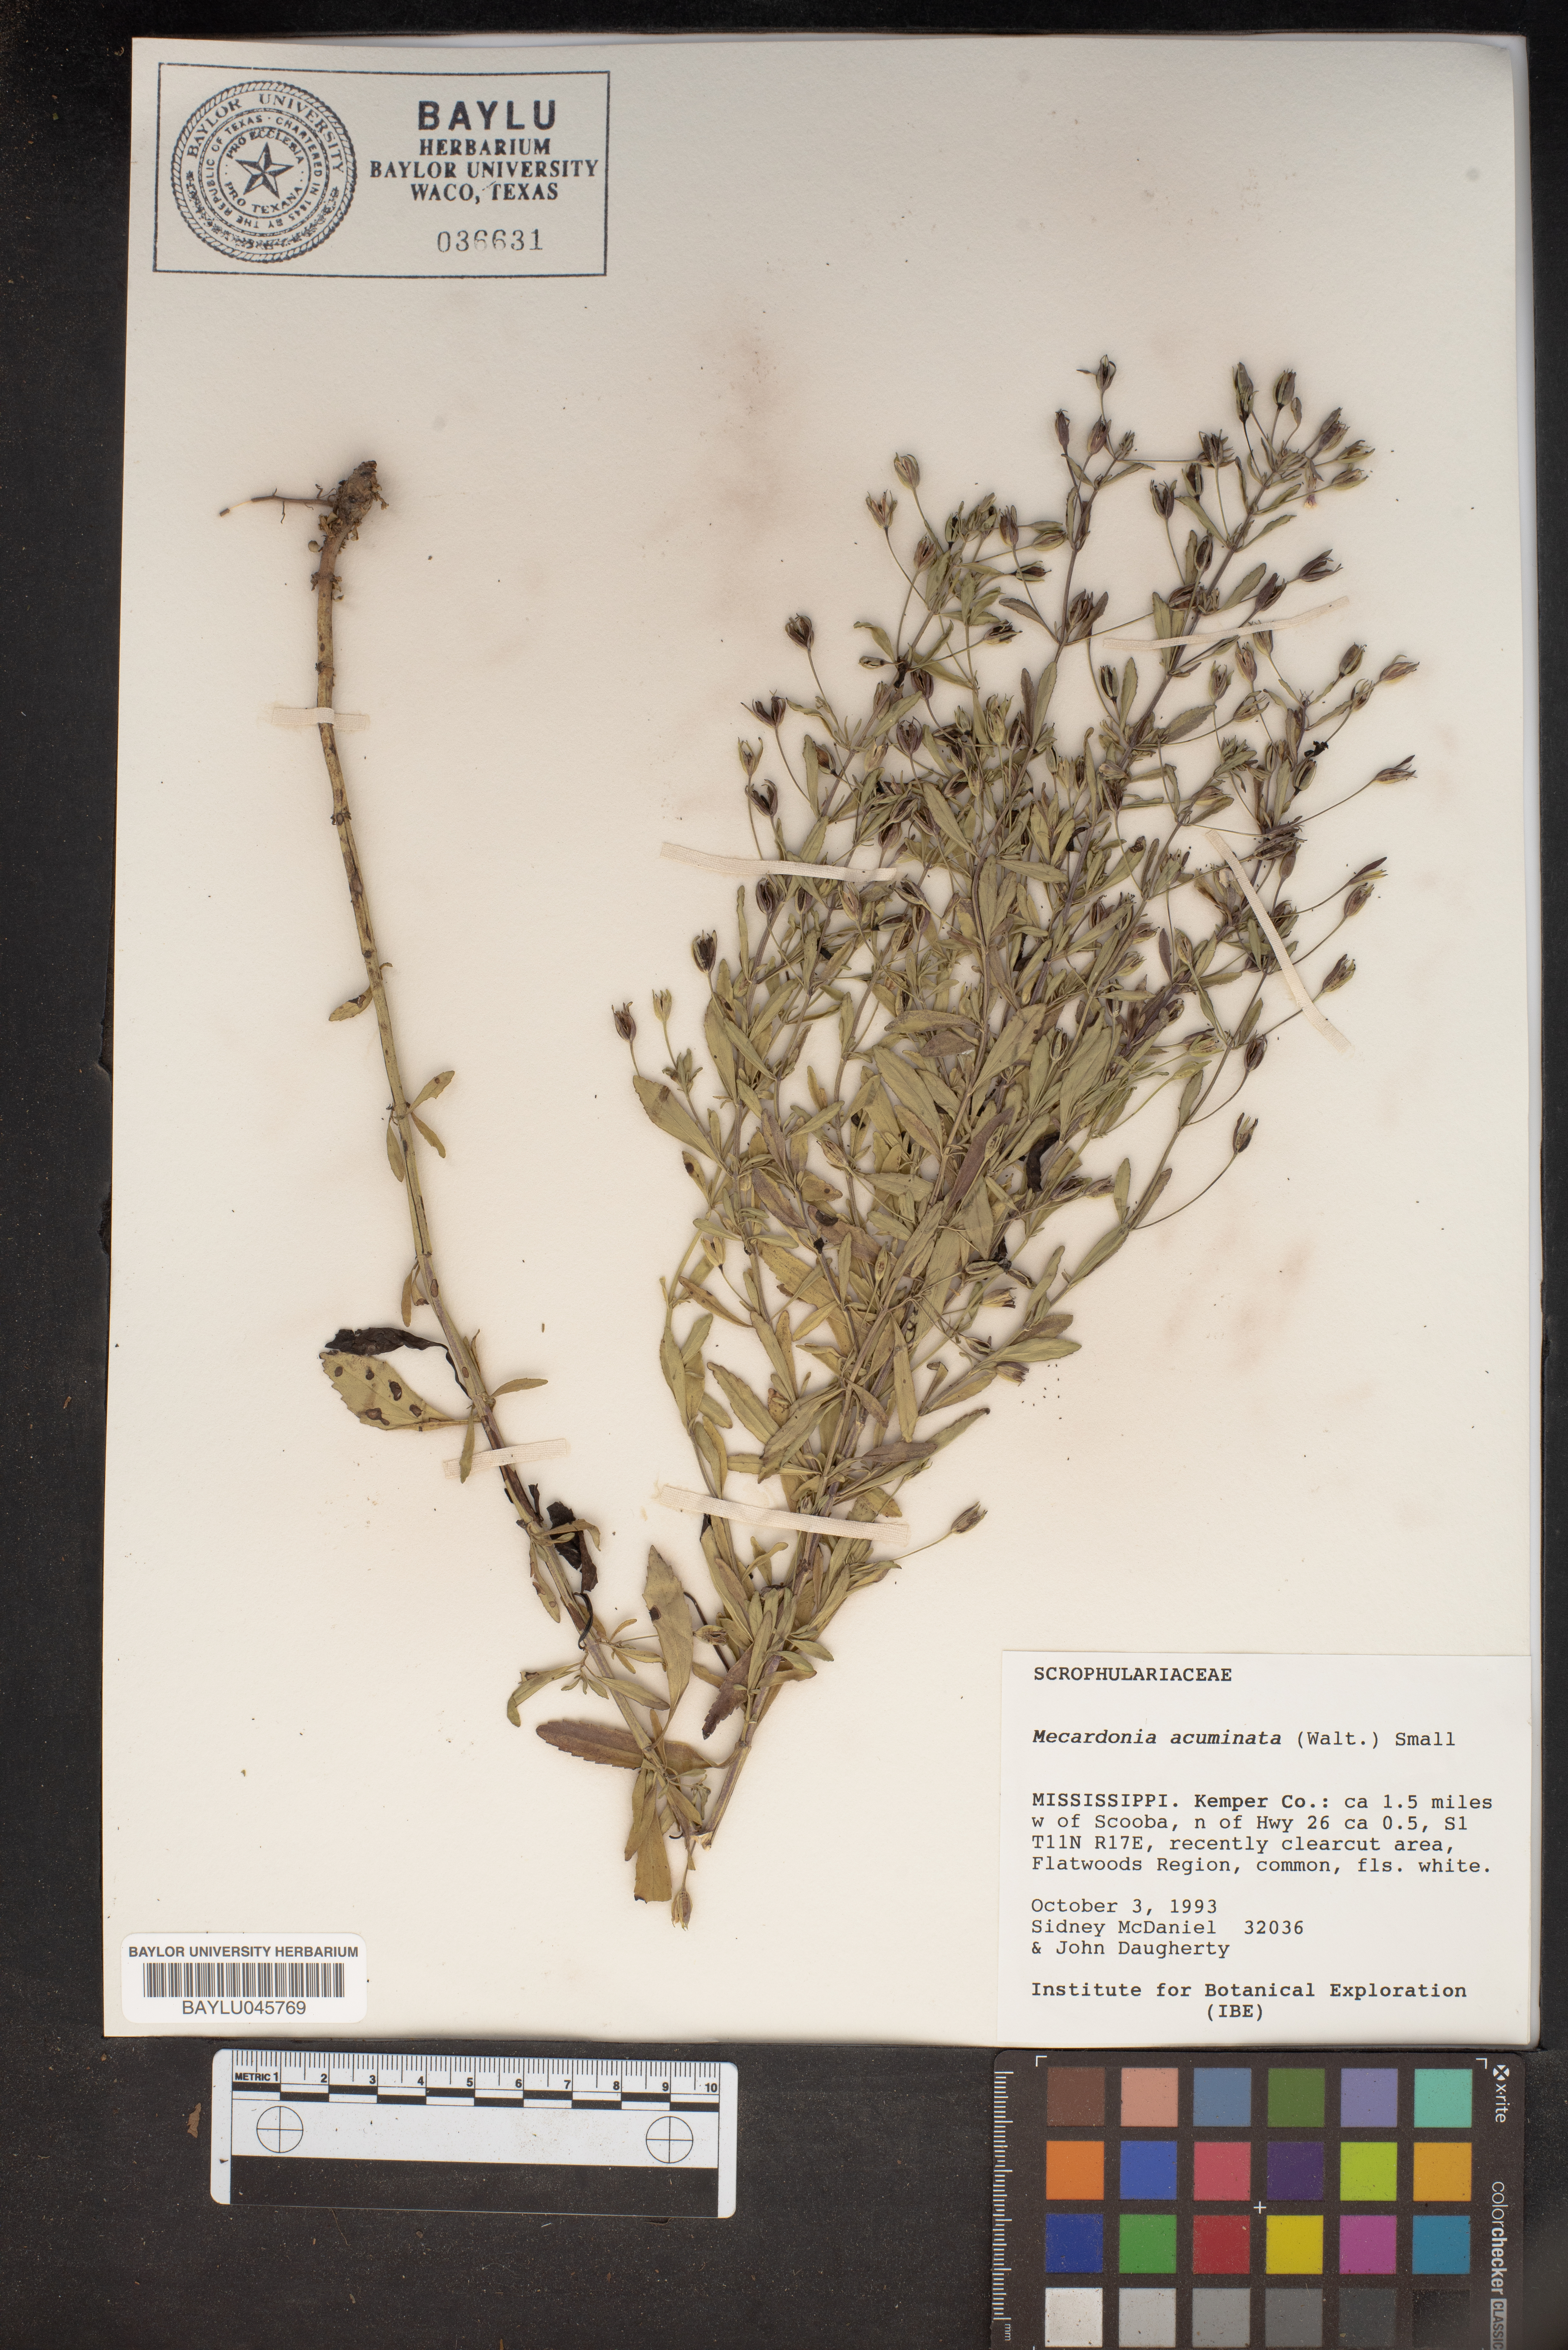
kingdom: Plantae
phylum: Tracheophyta
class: Magnoliopsida
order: Lamiales
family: Plantaginaceae
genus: Mecardonia
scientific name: Mecardonia acuminata
